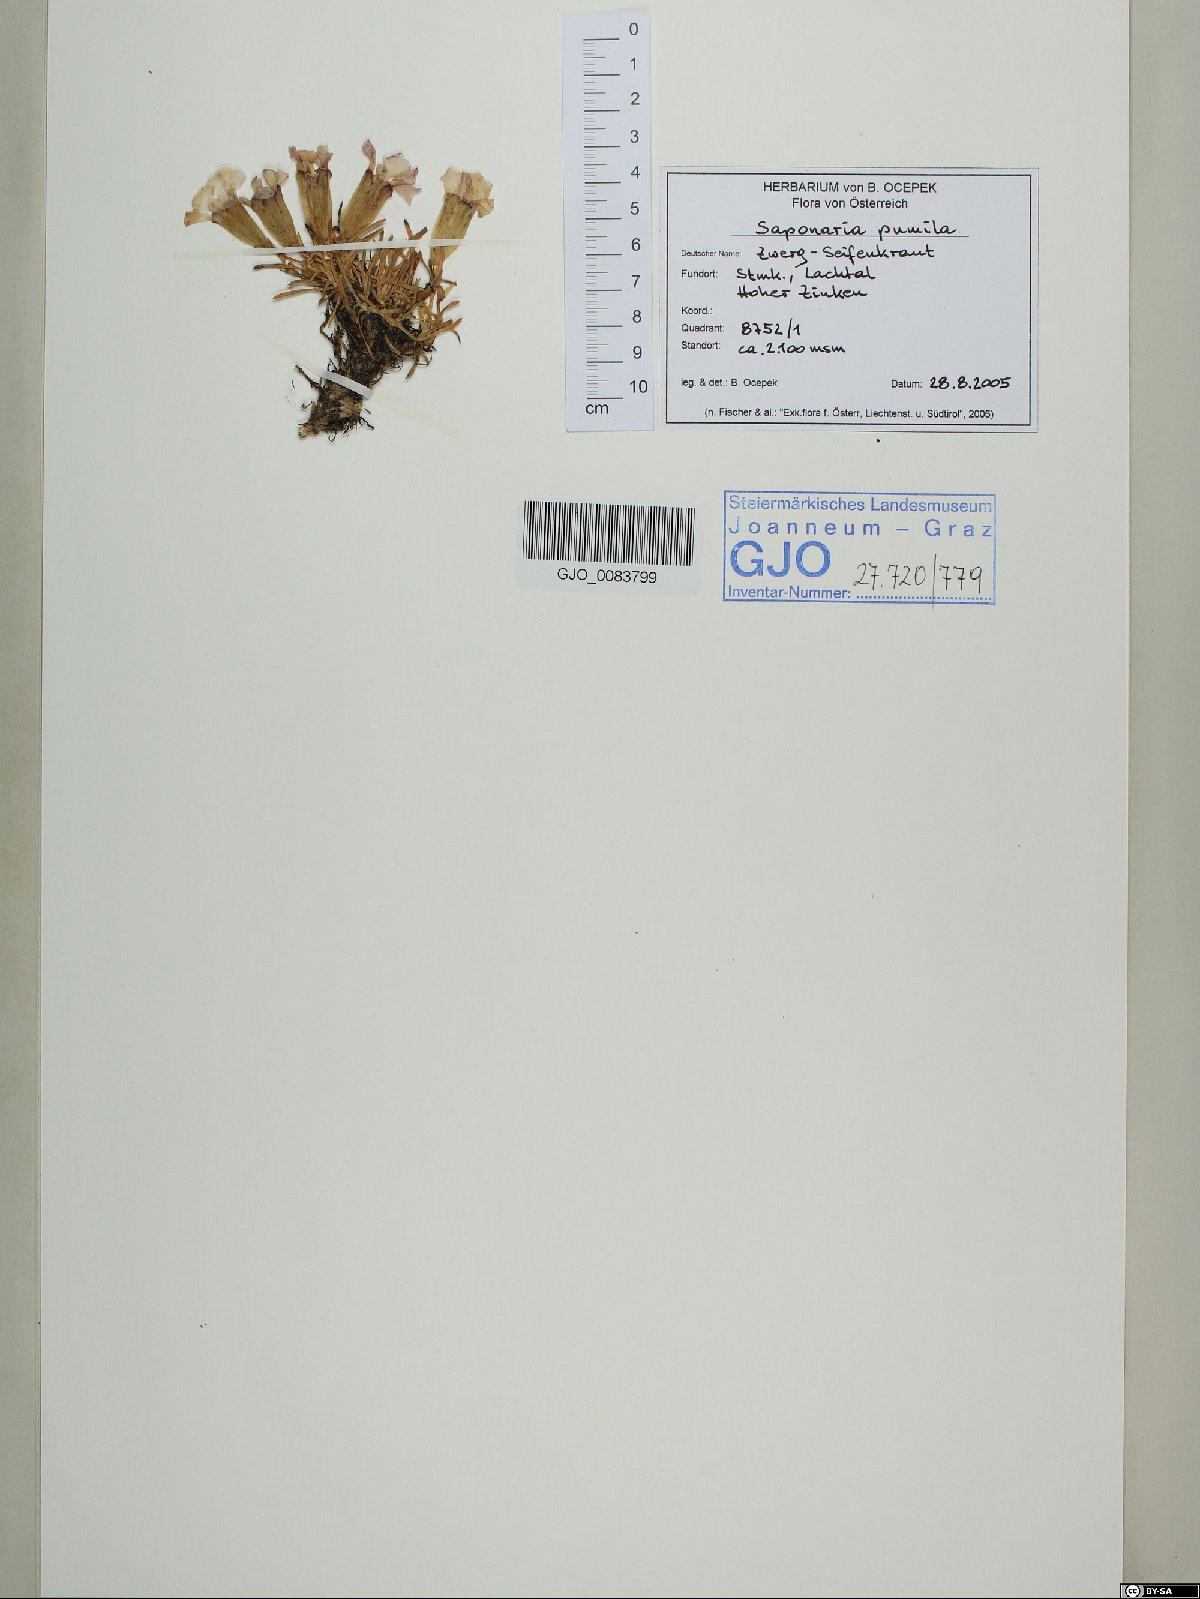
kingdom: Plantae
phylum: Tracheophyta
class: Magnoliopsida
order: Caryophyllales
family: Caryophyllaceae
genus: Saponaria
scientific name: Saponaria pumila
